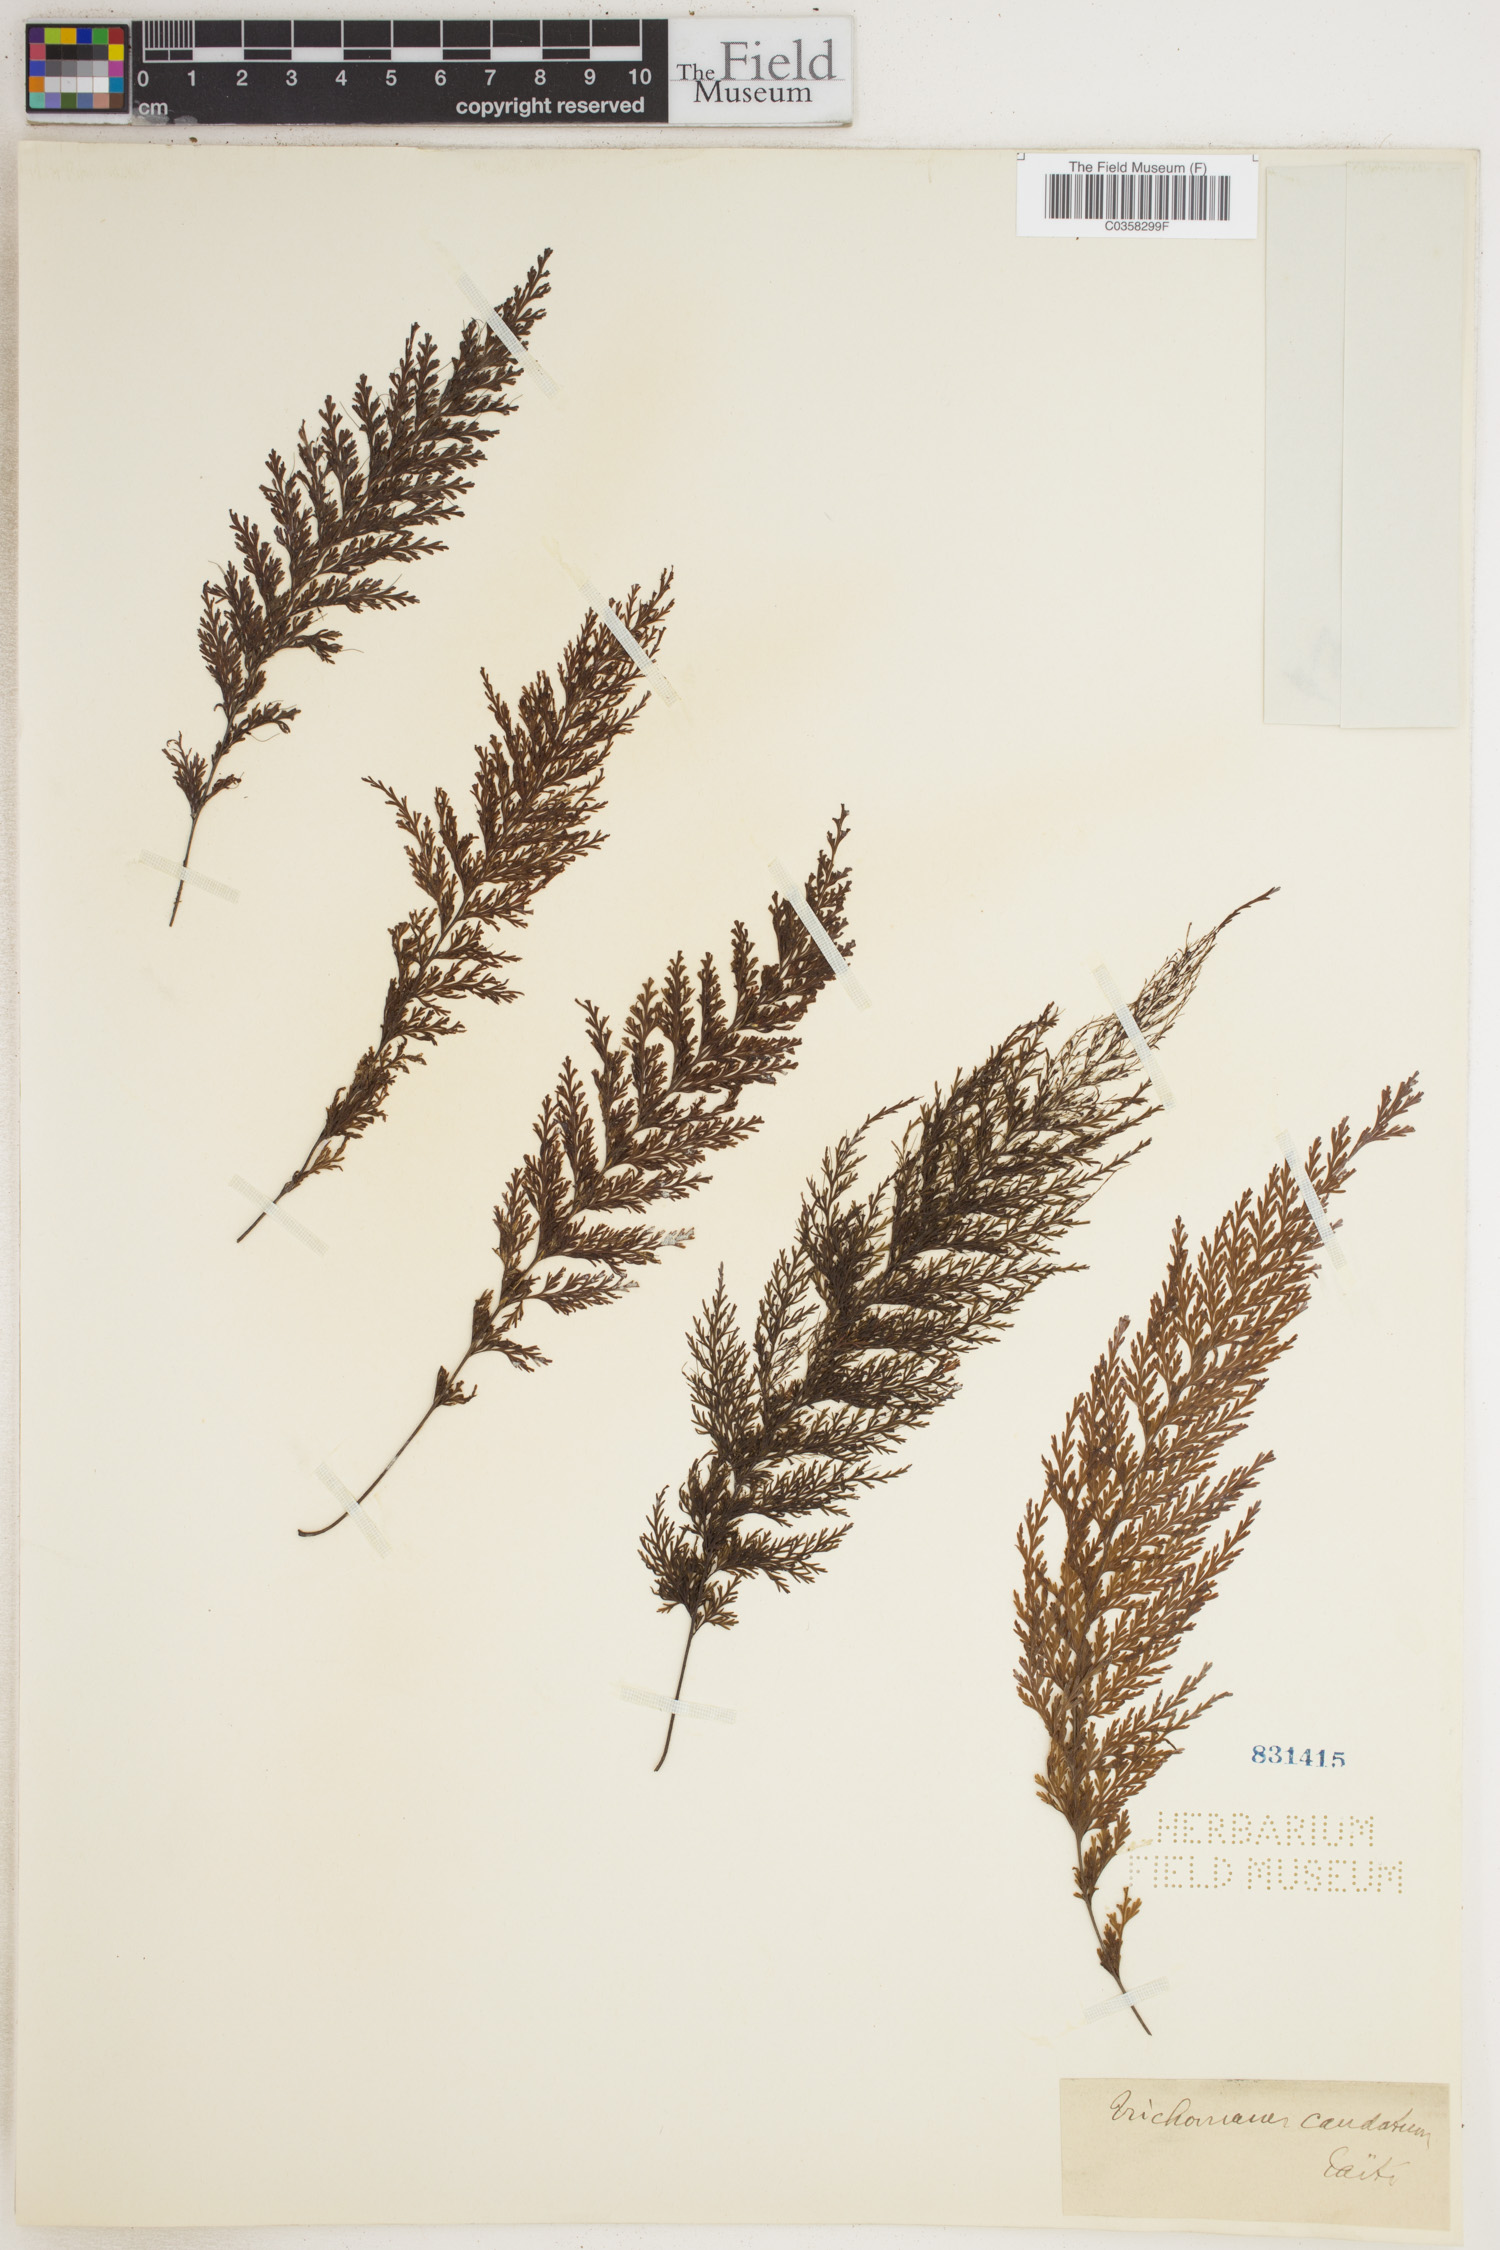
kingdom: Plantae
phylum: Tracheophyta
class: Polypodiopsida
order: Hymenophyllales
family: Hymenophyllaceae
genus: Abrodictyum
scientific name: Abrodictyum caudatum
